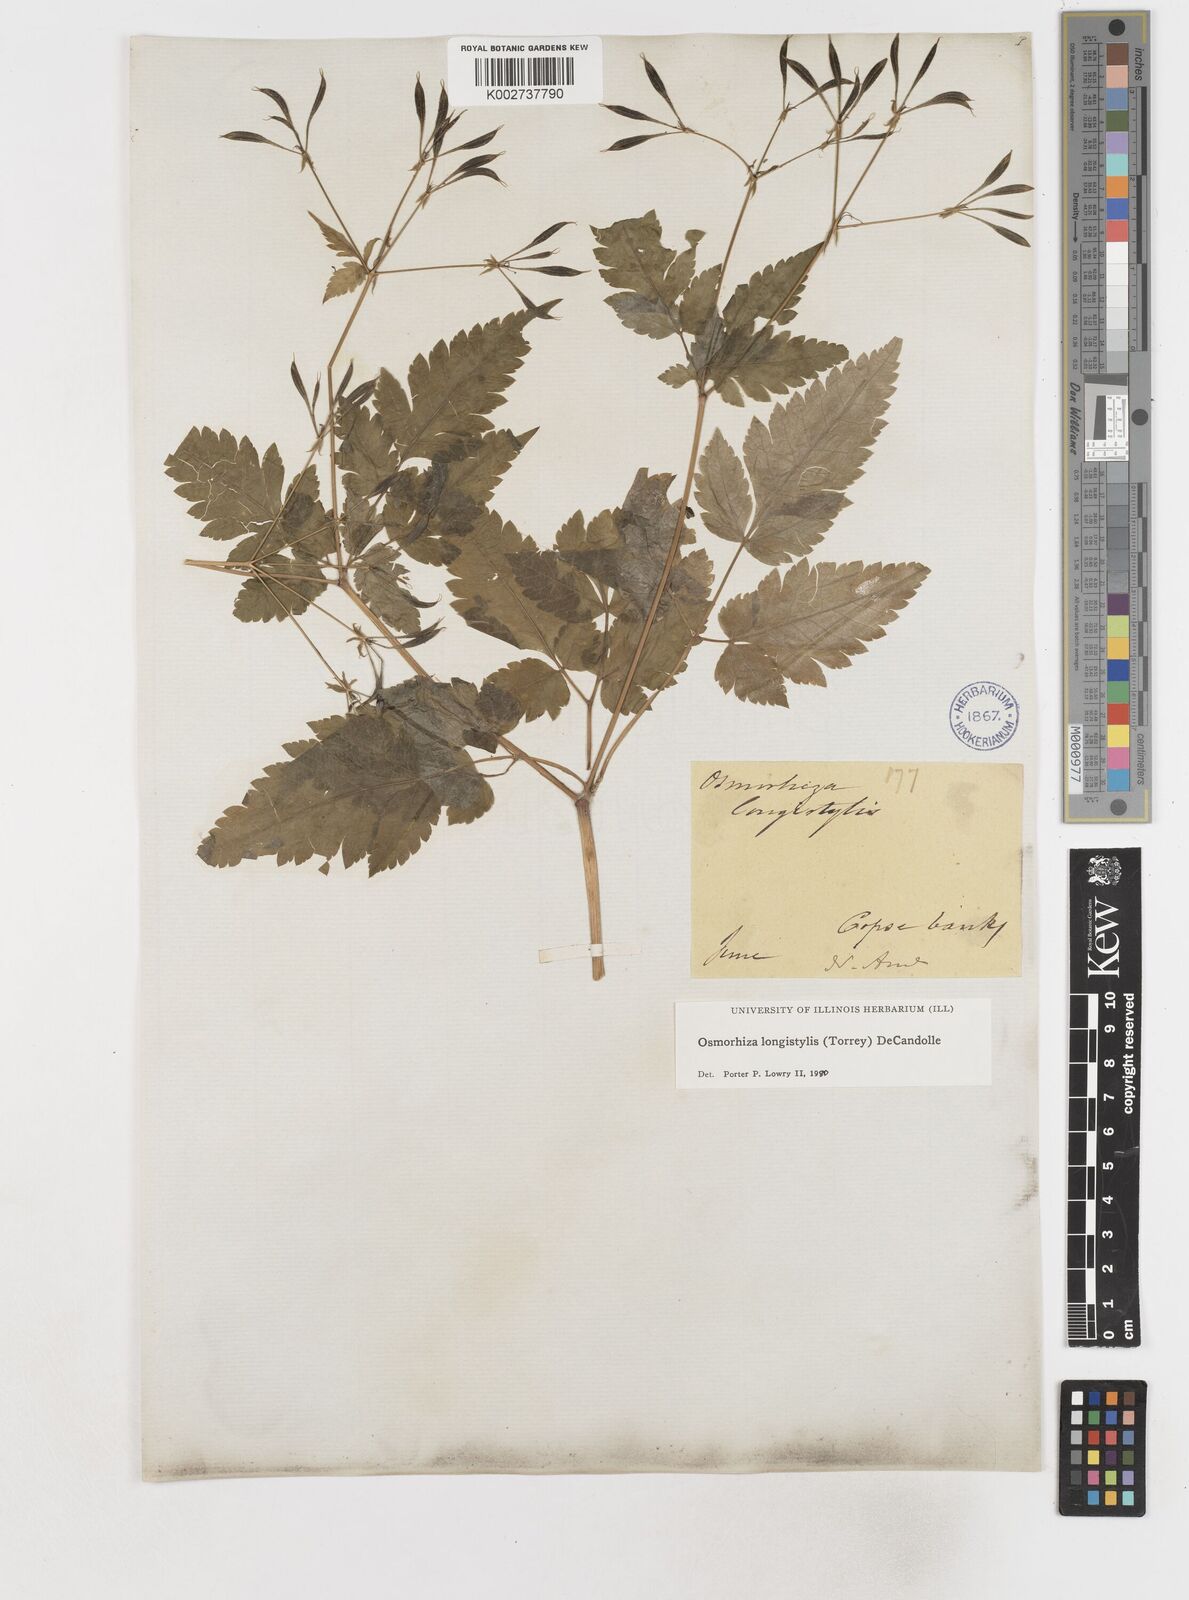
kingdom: Plantae
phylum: Tracheophyta
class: Magnoliopsida
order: Apiales
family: Apiaceae
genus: Osmorhiza
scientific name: Osmorhiza longistylis
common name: Smooth sweet cicely
